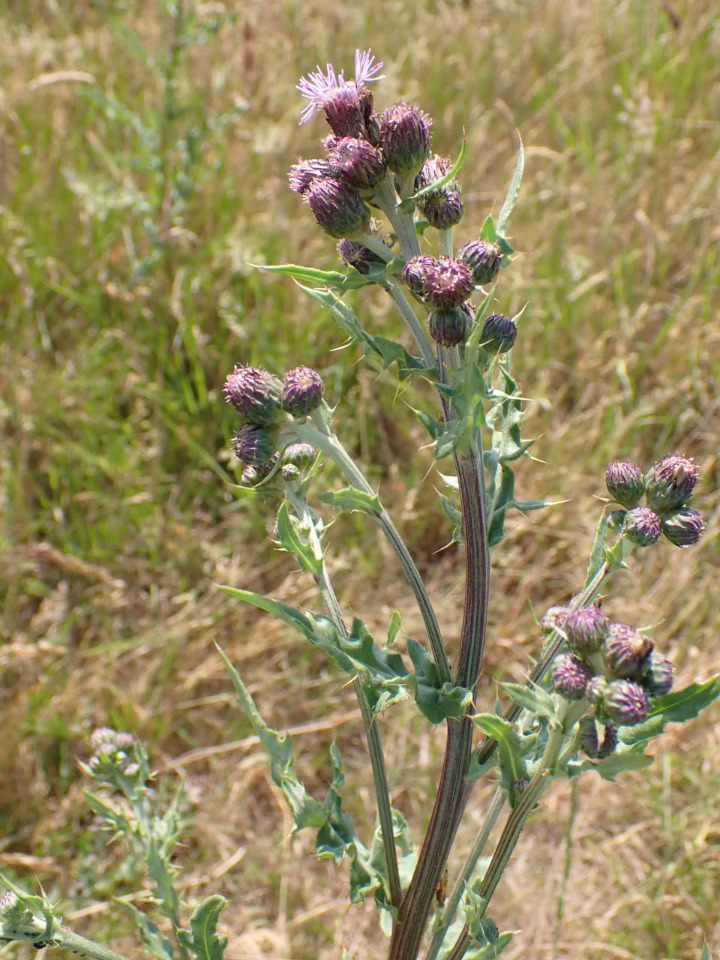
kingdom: Plantae
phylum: Tracheophyta
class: Magnoliopsida
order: Asterales
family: Asteraceae
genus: Cirsium
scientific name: Cirsium arvense
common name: Ager-tidsel
